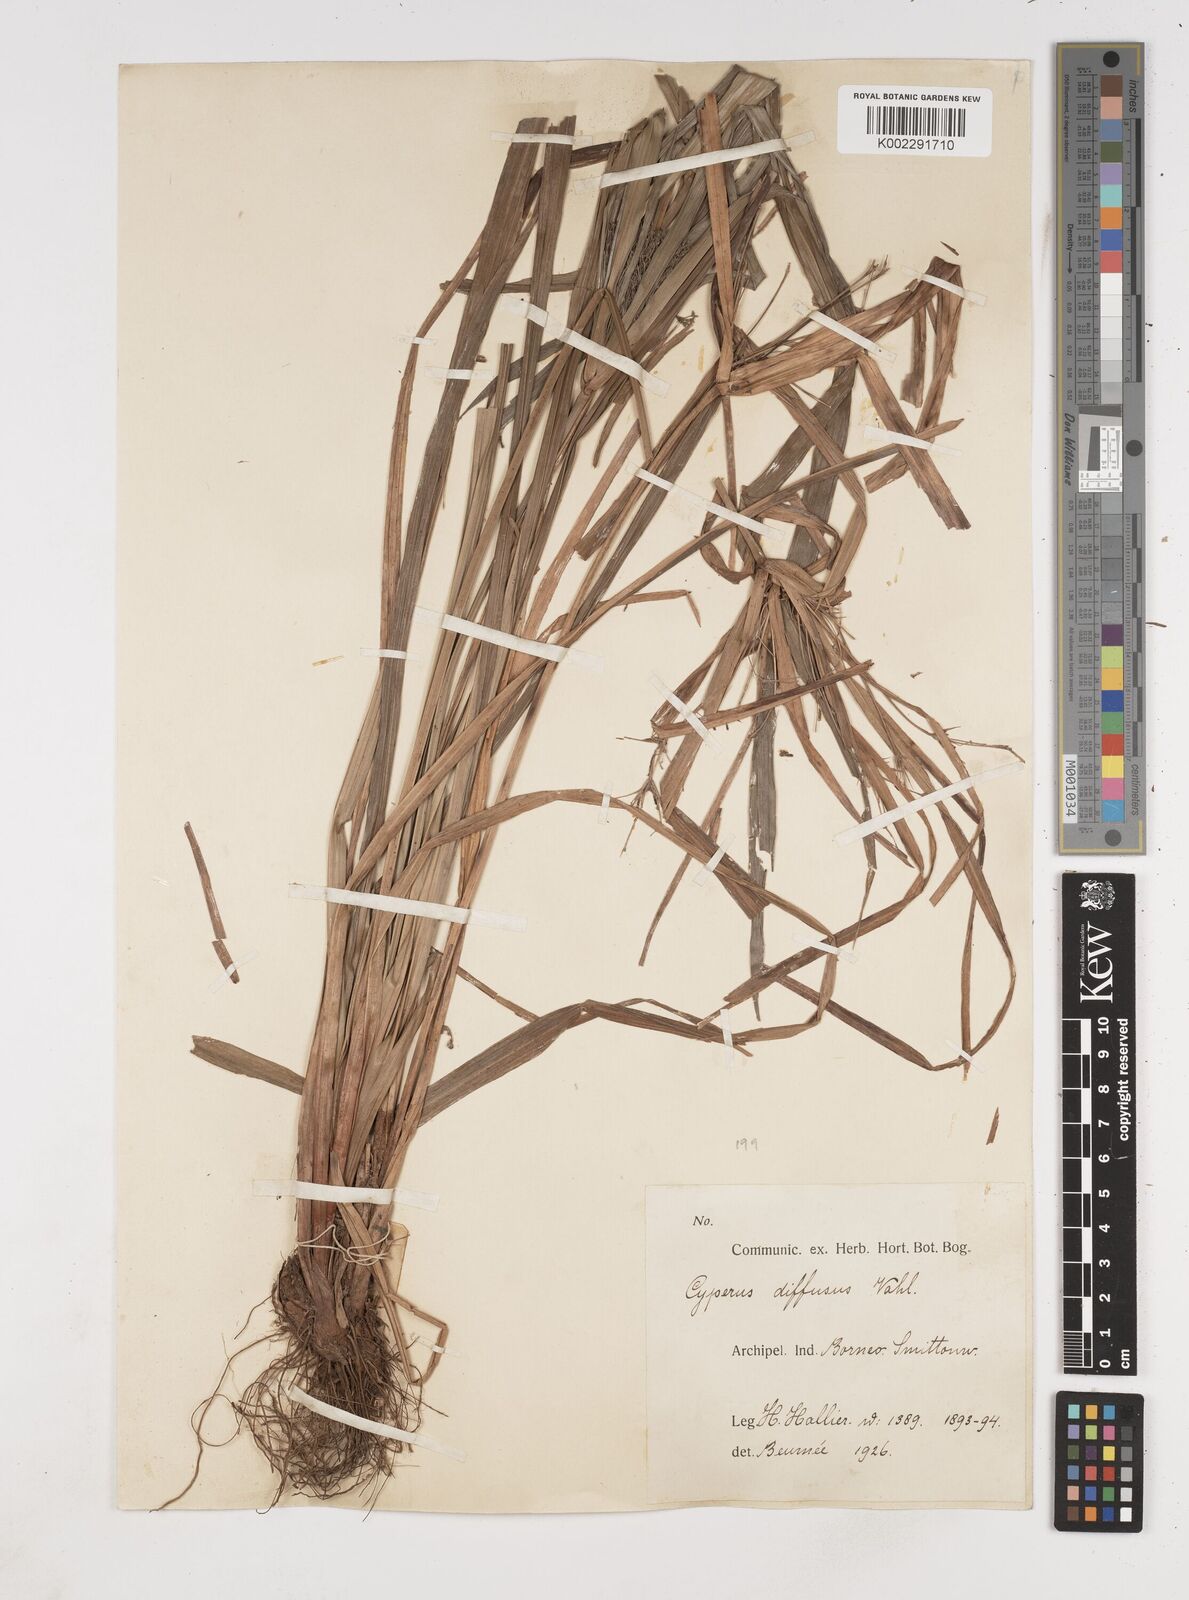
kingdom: Plantae
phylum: Tracheophyta
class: Liliopsida
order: Poales
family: Cyperaceae
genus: Cyperus
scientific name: Cyperus diffusus
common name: Dwarf umbrella grass
